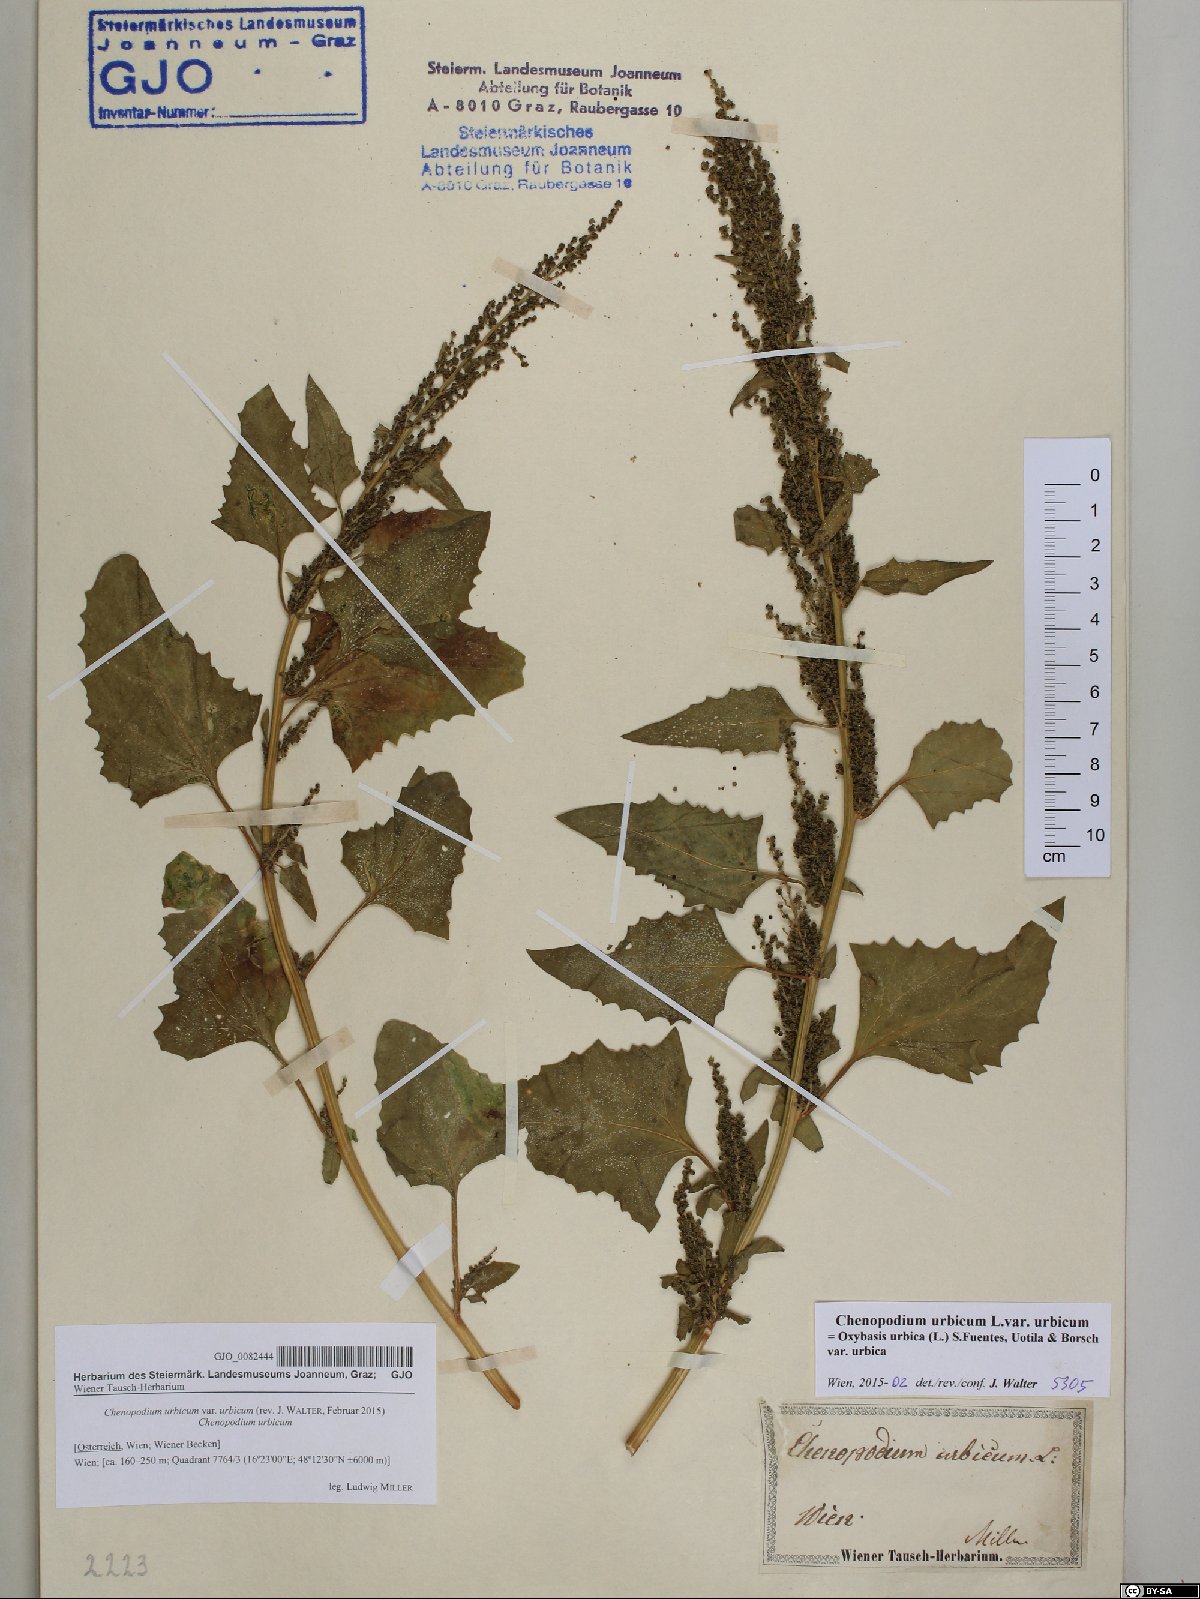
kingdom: Plantae
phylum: Tracheophyta
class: Magnoliopsida
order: Caryophyllales
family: Amaranthaceae
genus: Oxybasis
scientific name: Oxybasis urbica
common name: City goosefoot
